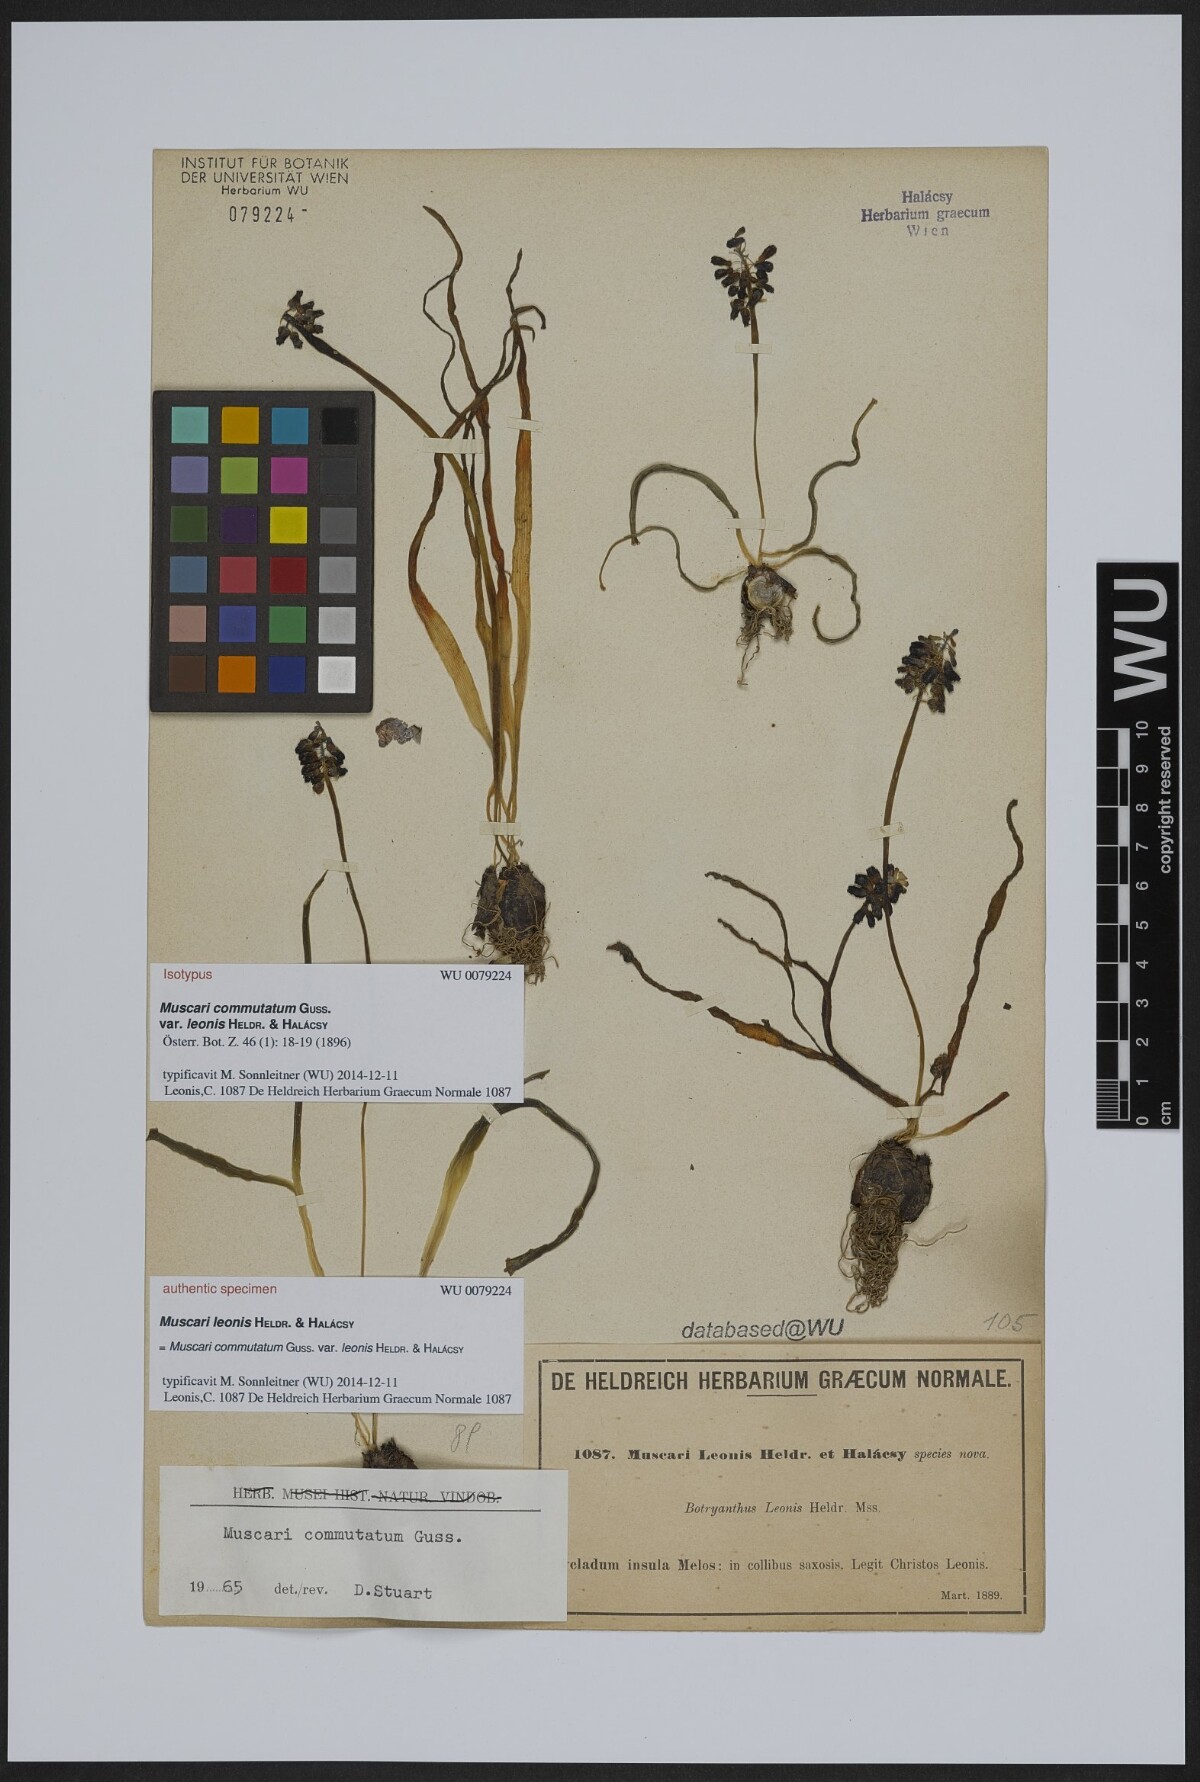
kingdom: Plantae
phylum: Tracheophyta
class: Liliopsida
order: Asparagales
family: Asparagaceae
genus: Muscari
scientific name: Muscari commutatum
